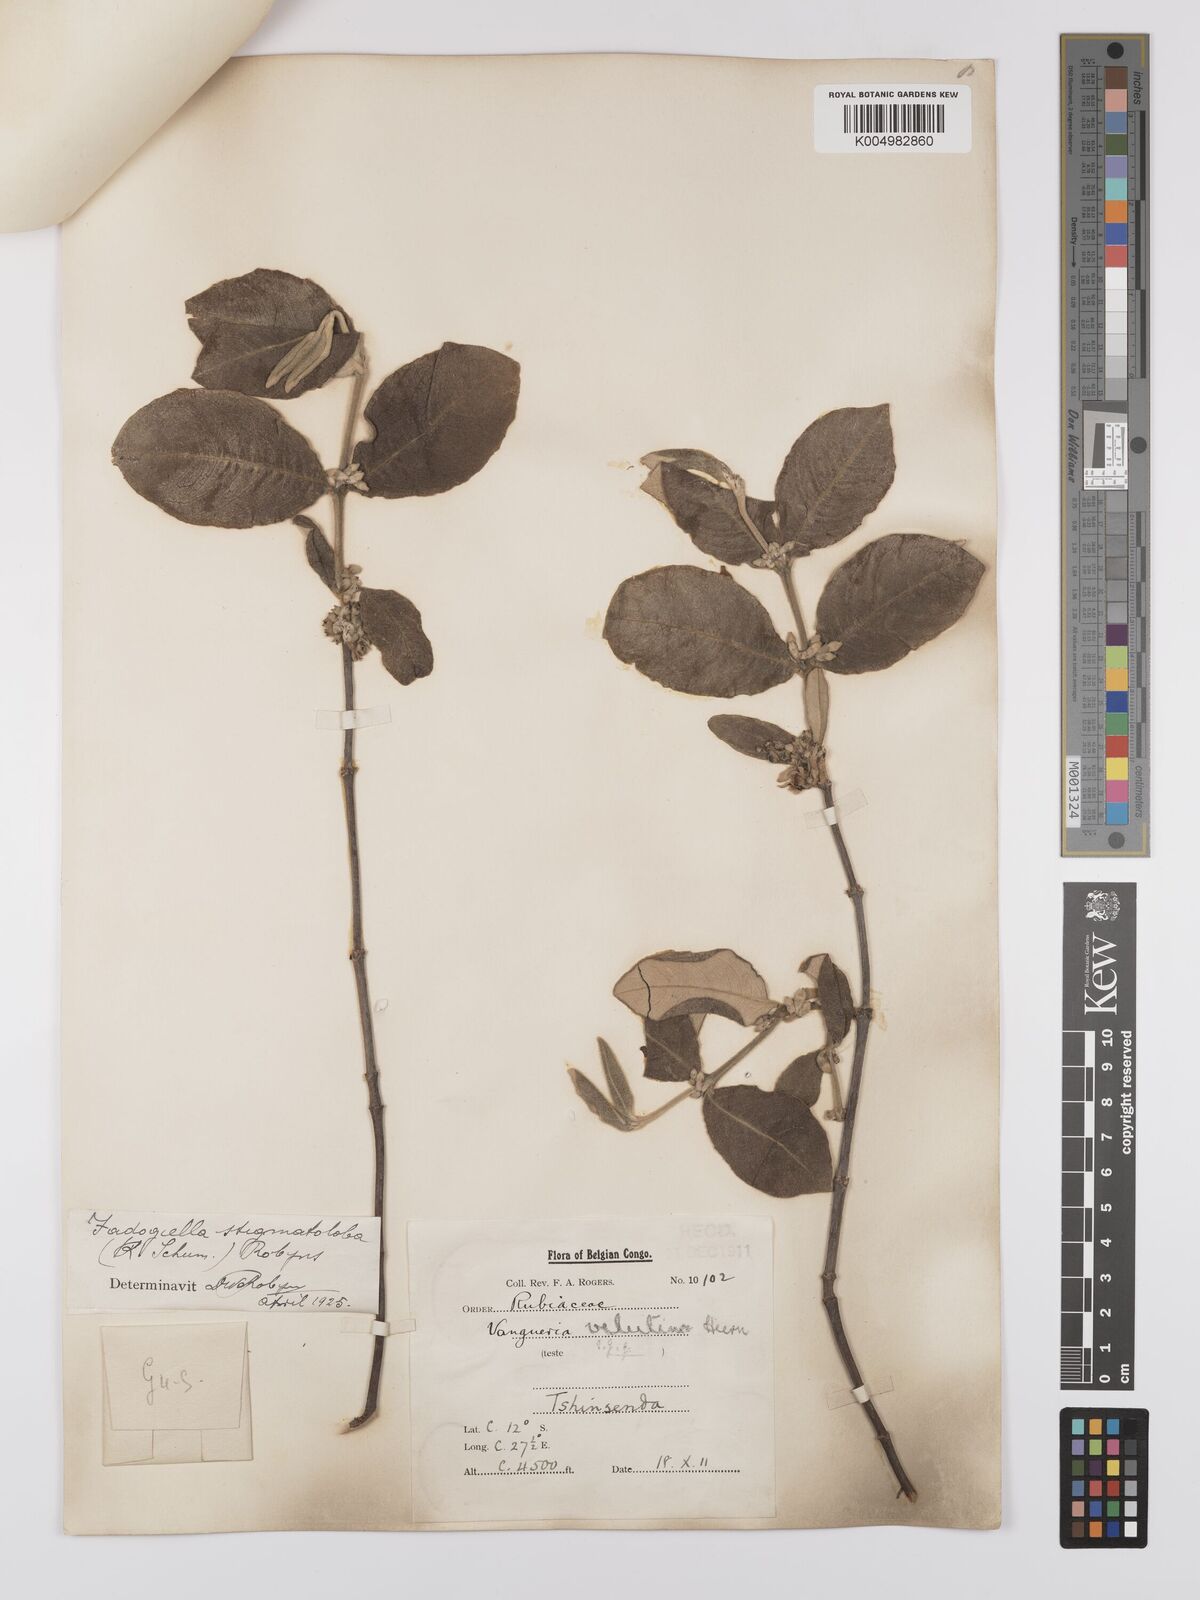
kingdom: Plantae
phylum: Tracheophyta
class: Magnoliopsida
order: Gentianales
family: Rubiaceae
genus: Fadogiella
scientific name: Fadogiella stigmatoloba
